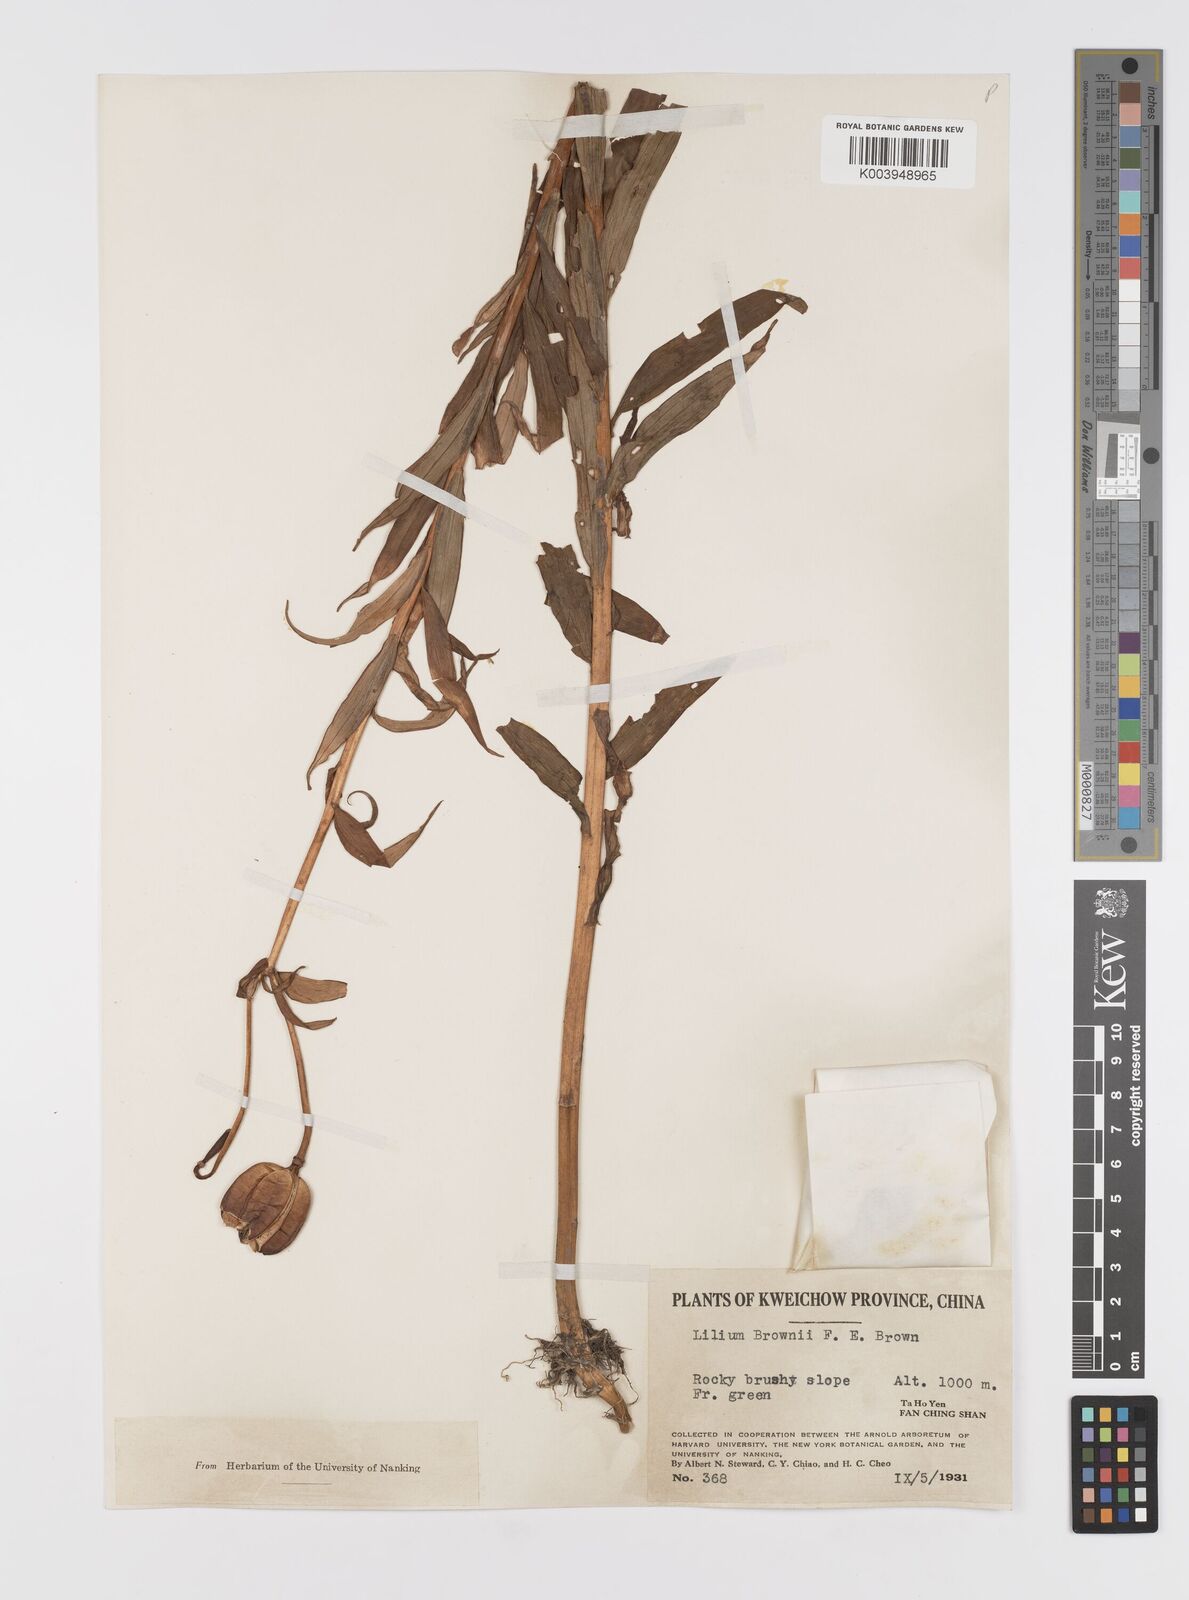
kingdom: Plantae
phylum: Tracheophyta
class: Liliopsida
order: Liliales
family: Liliaceae
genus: Lilium
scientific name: Lilium japonicum
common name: Japanese lily
